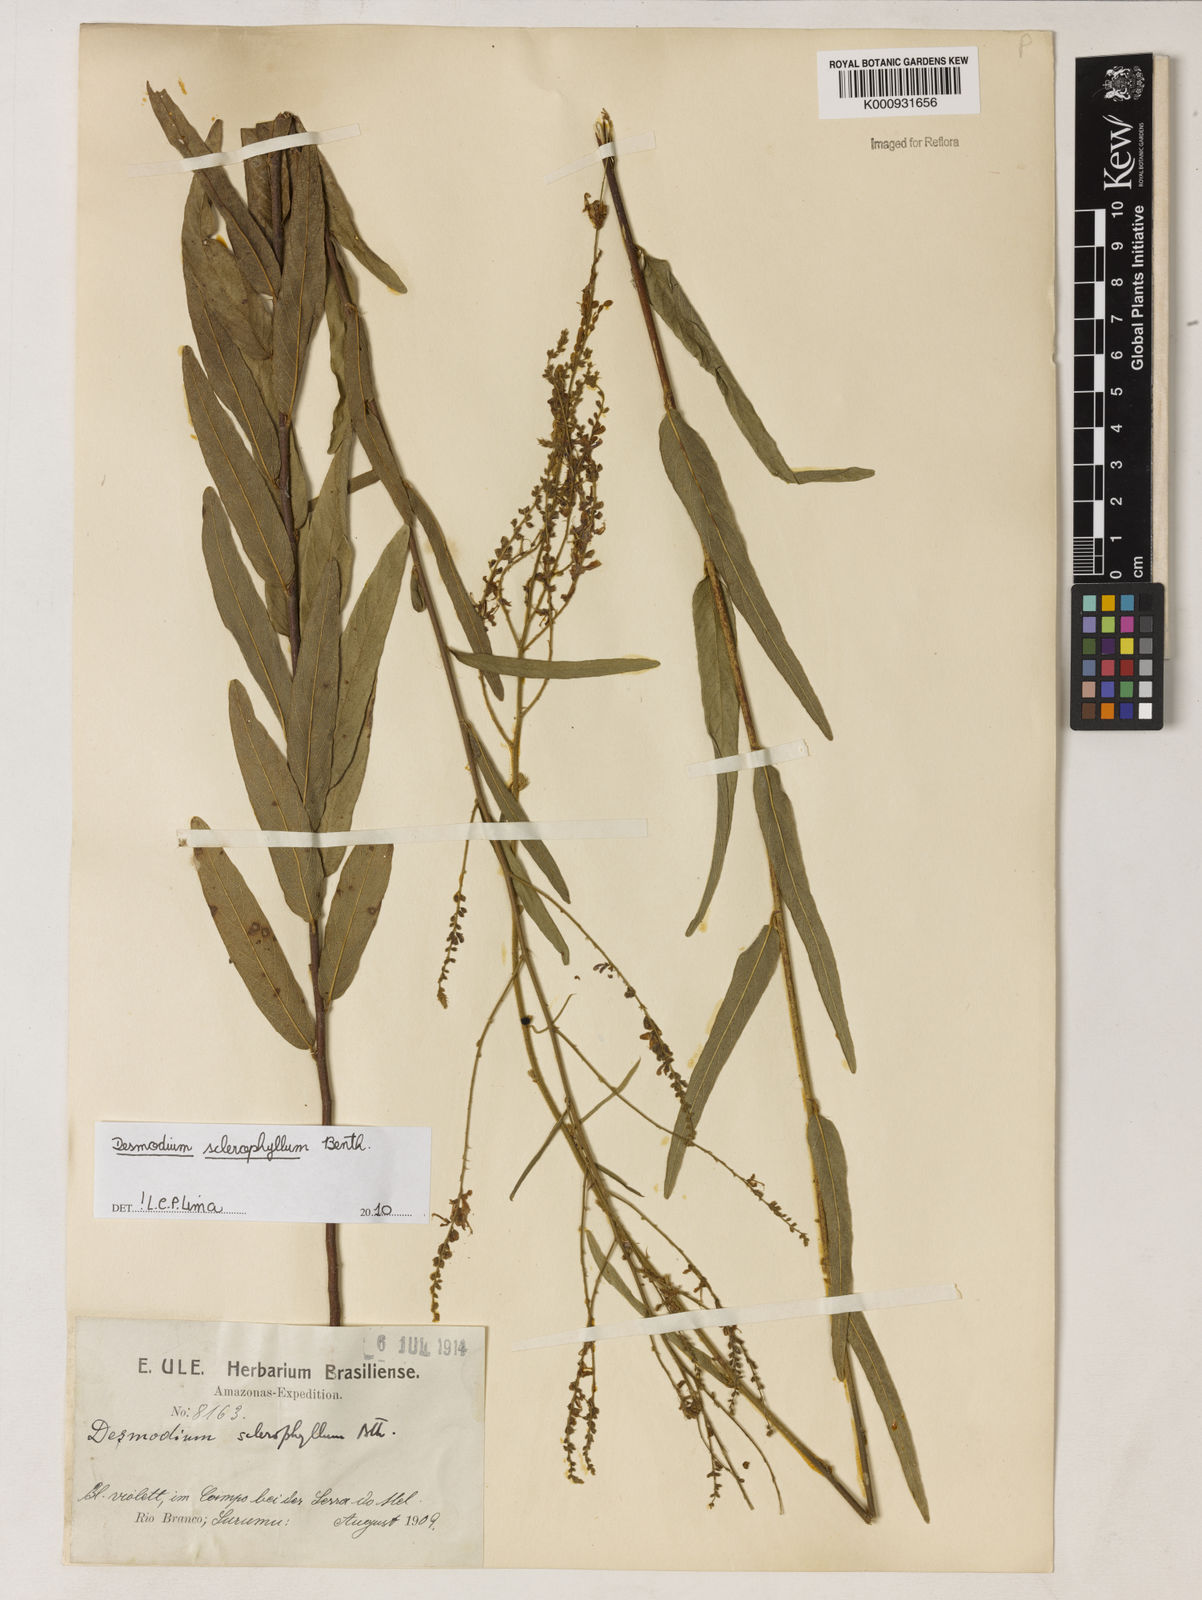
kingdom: Plantae
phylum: Tracheophyta
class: Magnoliopsida
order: Fabales
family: Fabaceae
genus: Desmodium
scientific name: Desmodium sclerophyllum
